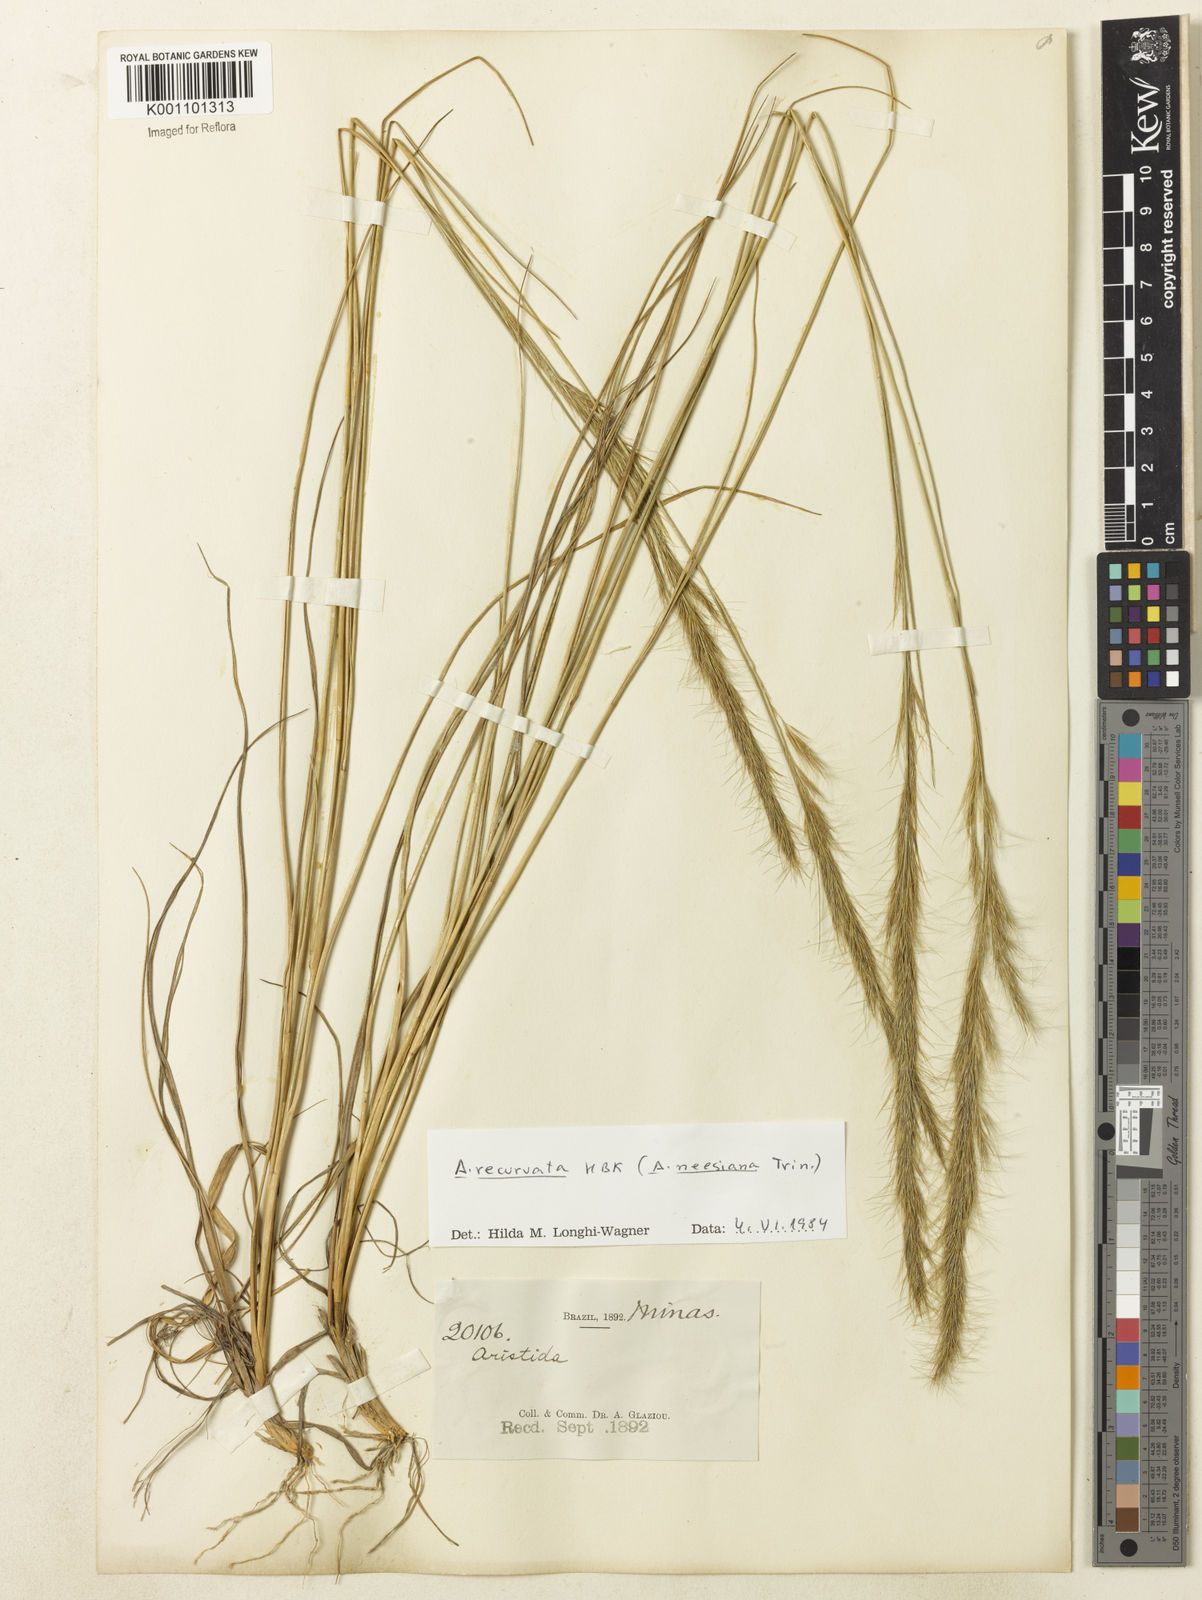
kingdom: Plantae
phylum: Tracheophyta
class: Liliopsida
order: Poales
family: Poaceae
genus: Aristida
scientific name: Aristida recurvata
